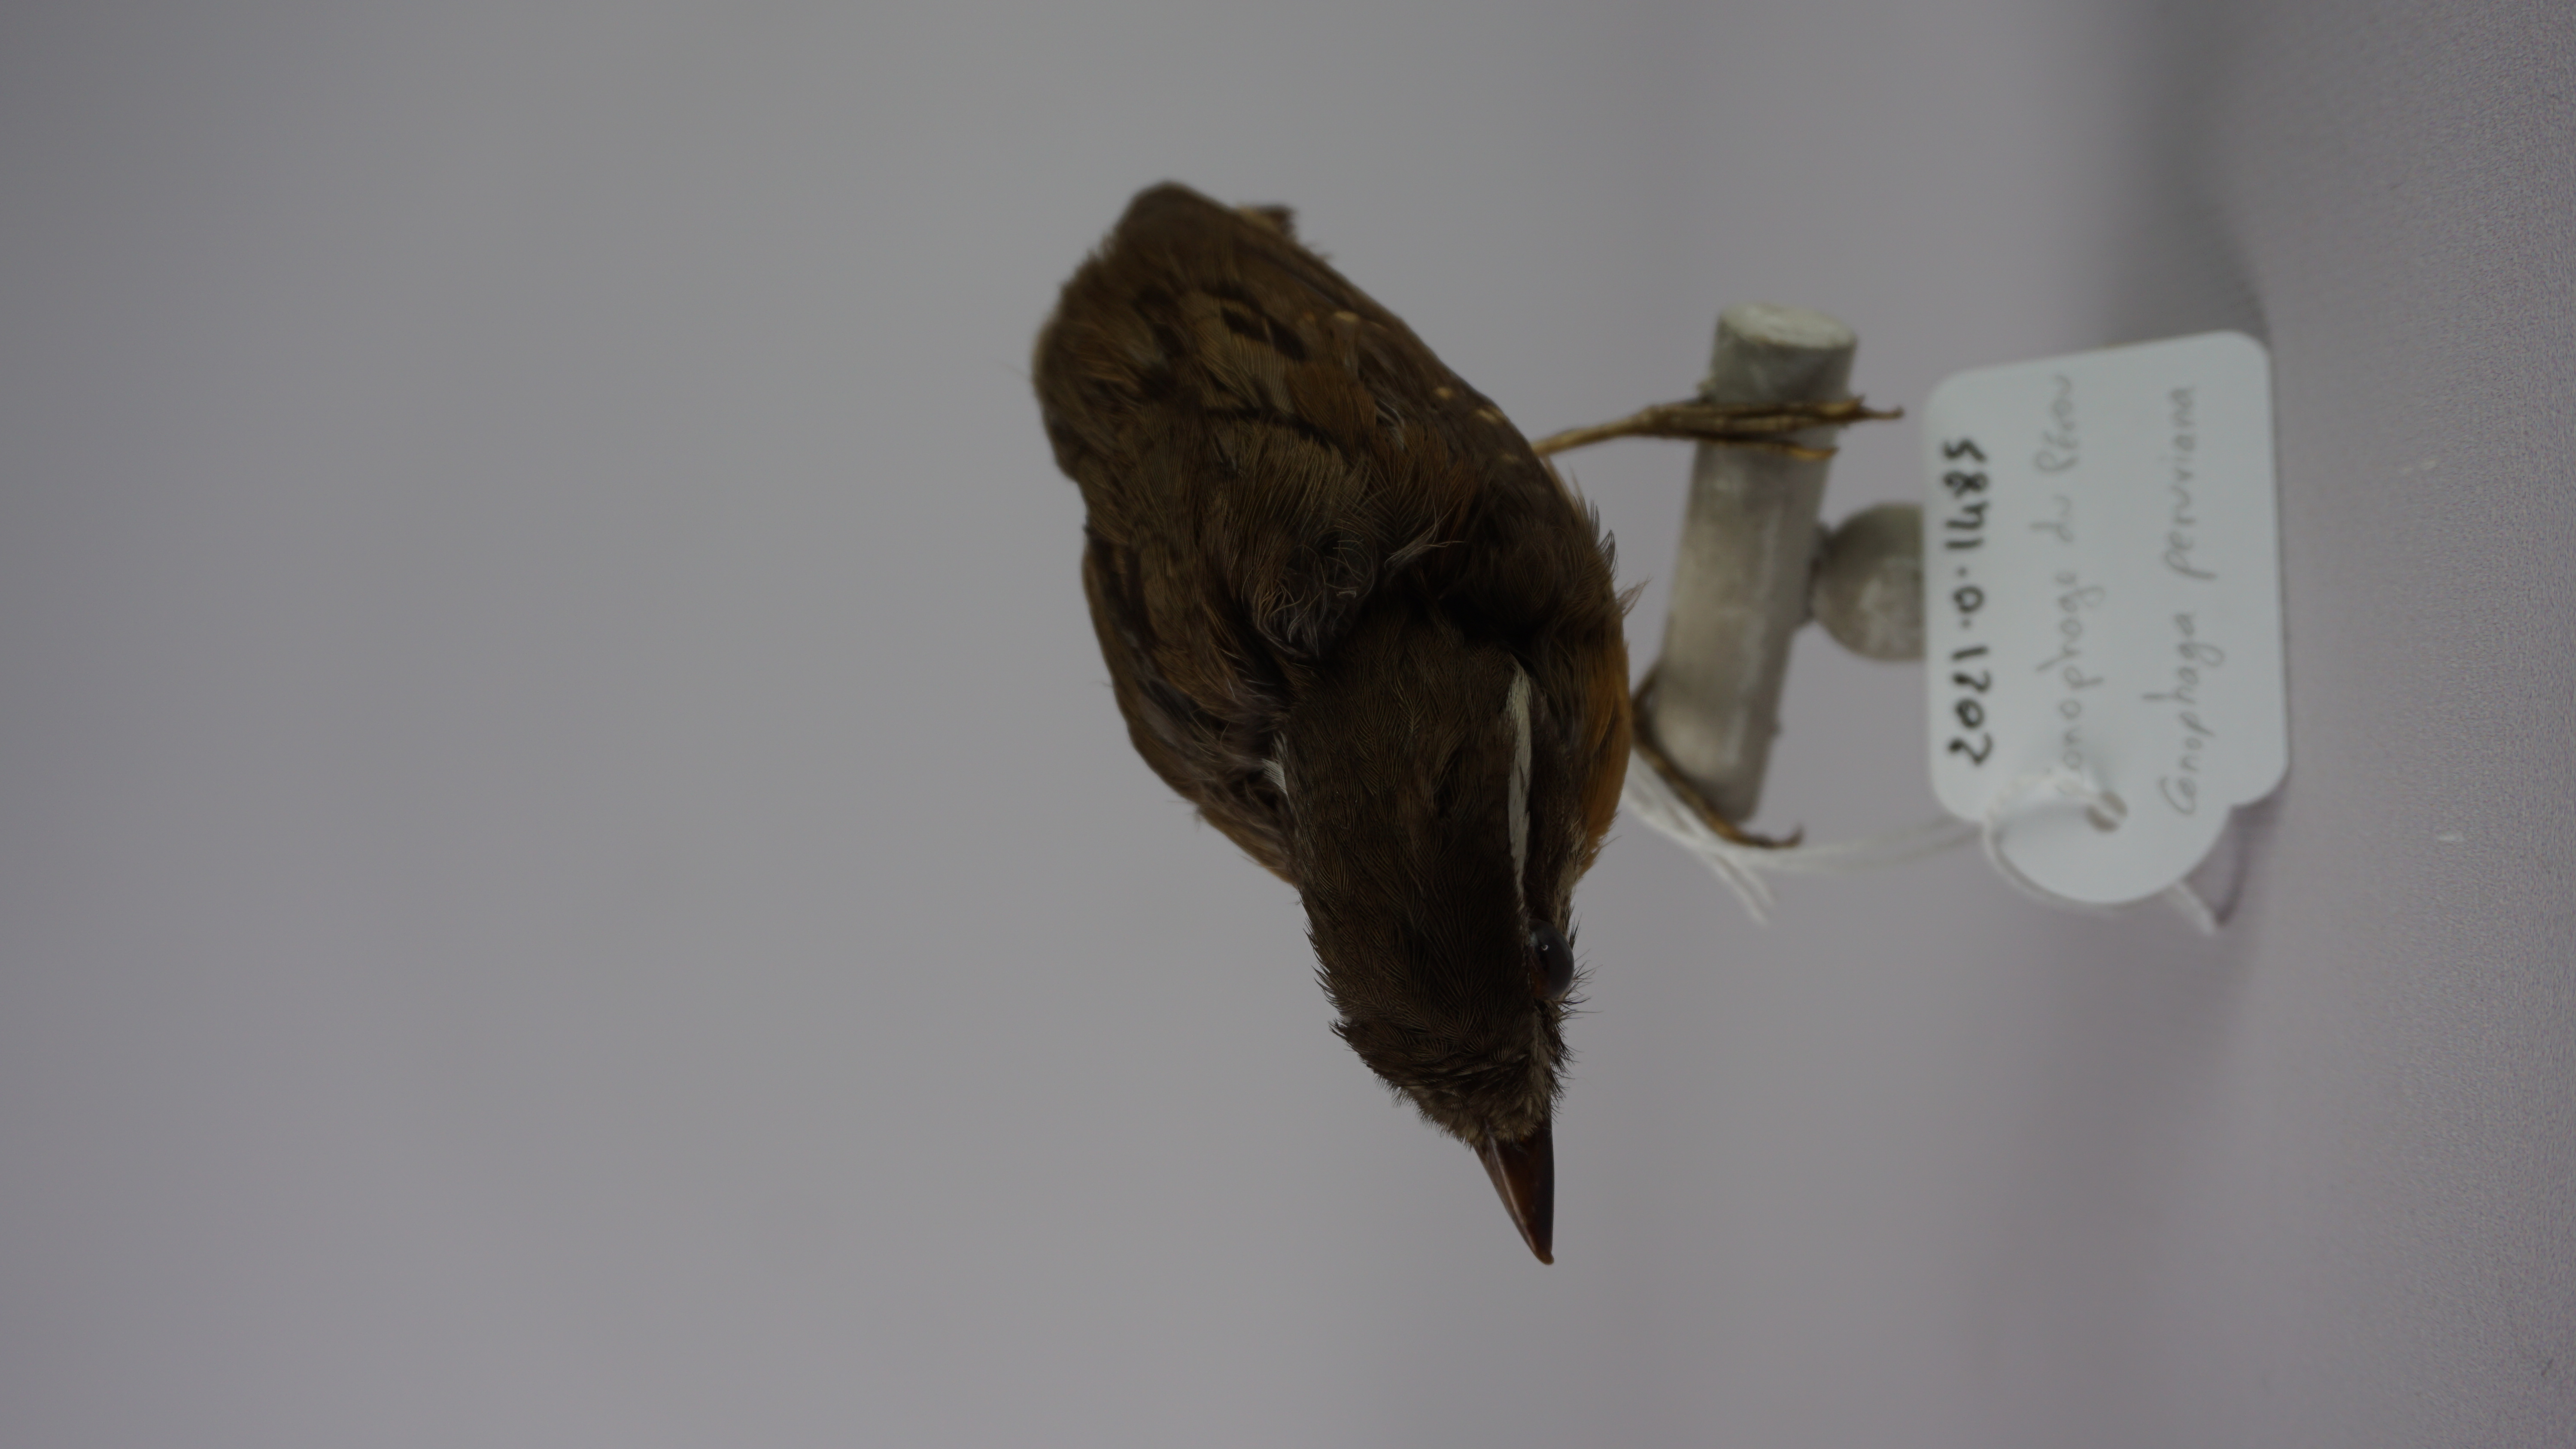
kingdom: Animalia
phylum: Chordata
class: Aves
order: Passeriformes
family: Conopophagidae
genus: Conopophaga
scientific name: Conopophaga peruviana
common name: Ash-throated gnateater
